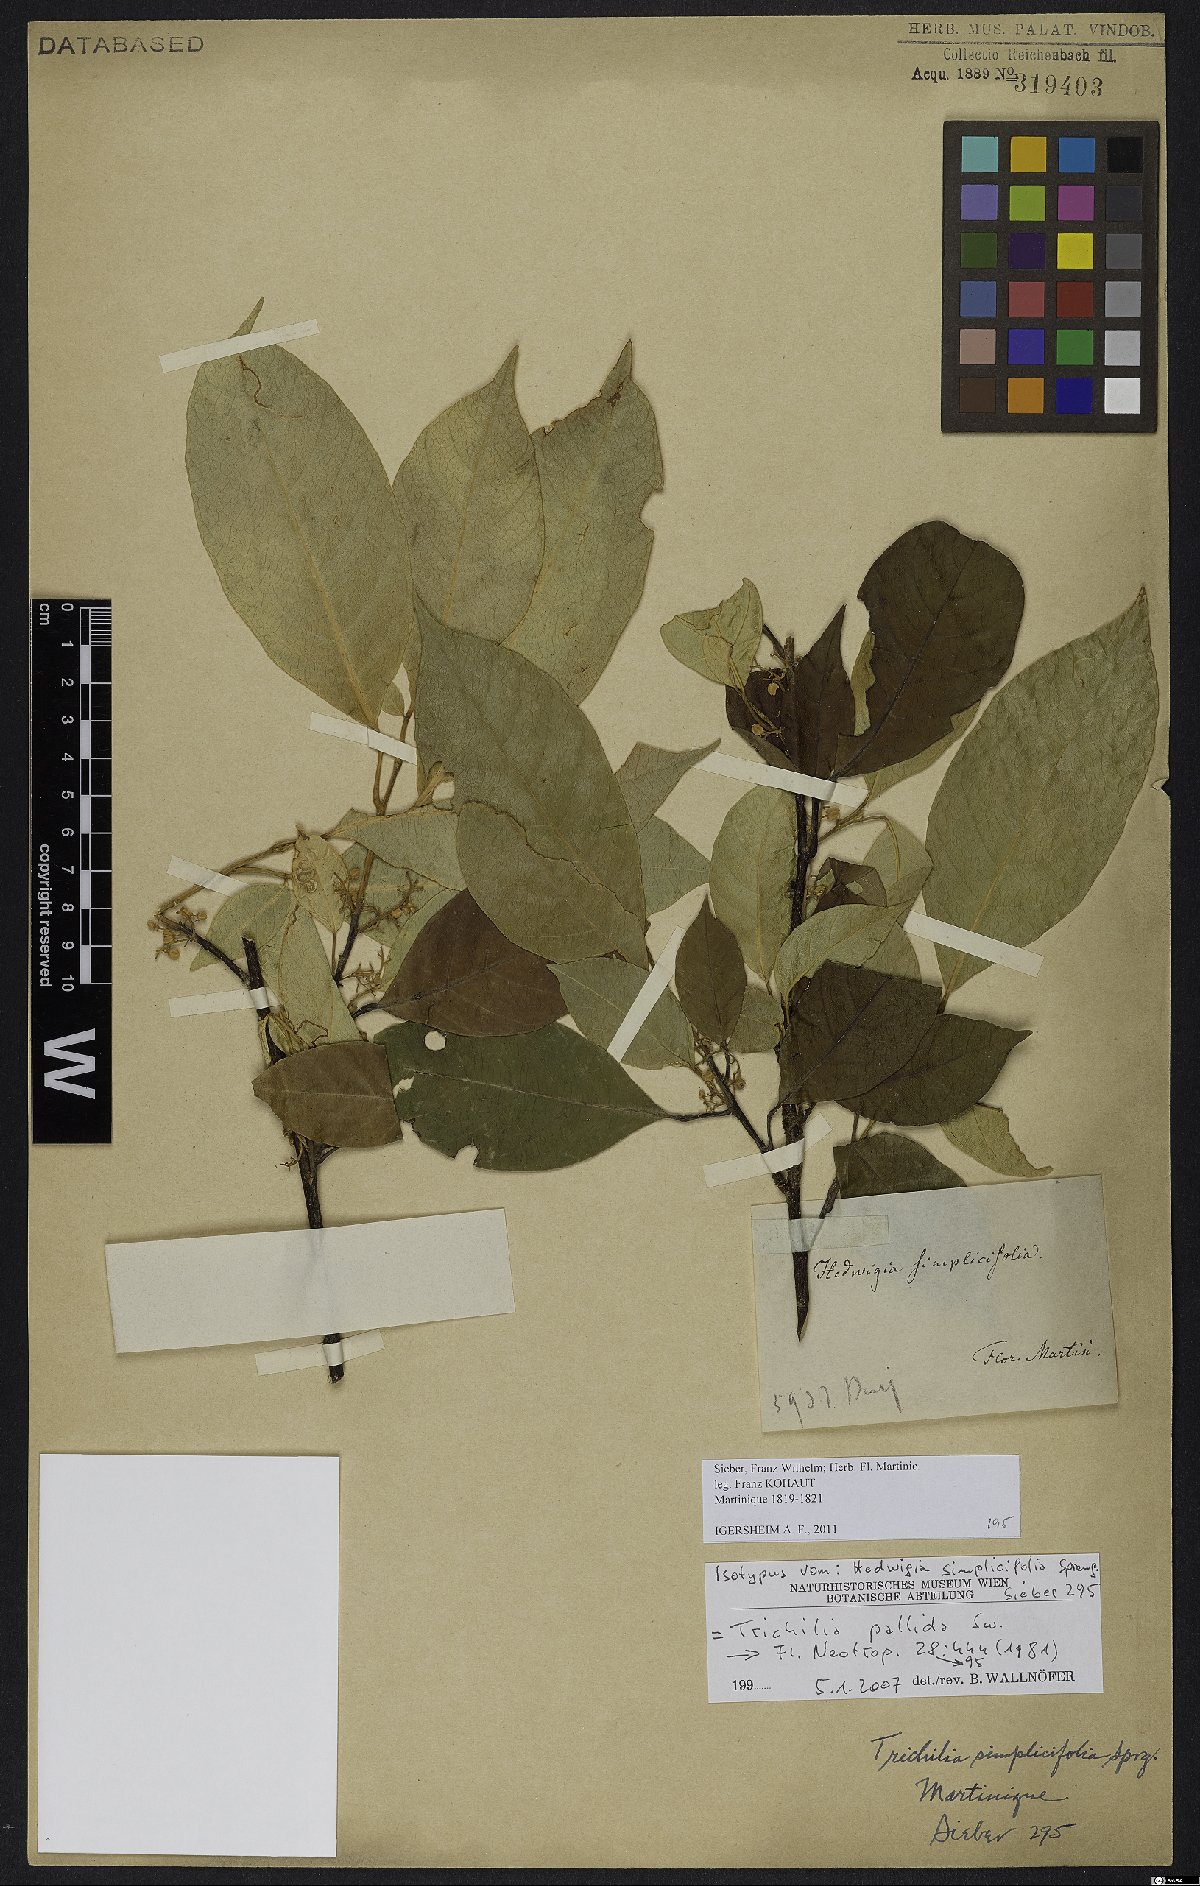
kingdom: Plantae
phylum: Tracheophyta
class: Magnoliopsida
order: Sapindales
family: Meliaceae
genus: Trichilia
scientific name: Trichilia pallida
